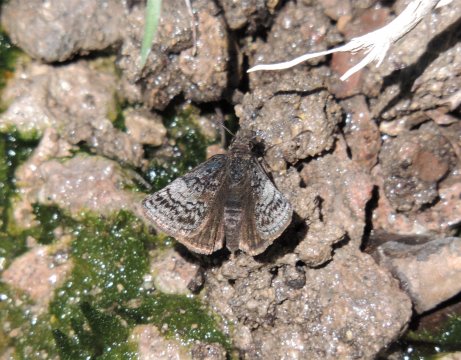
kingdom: Animalia
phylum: Arthropoda
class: Insecta
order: Lepidoptera
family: Hesperiidae
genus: Erynnis
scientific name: Erynnis icelus
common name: Dreamy Duskywing
